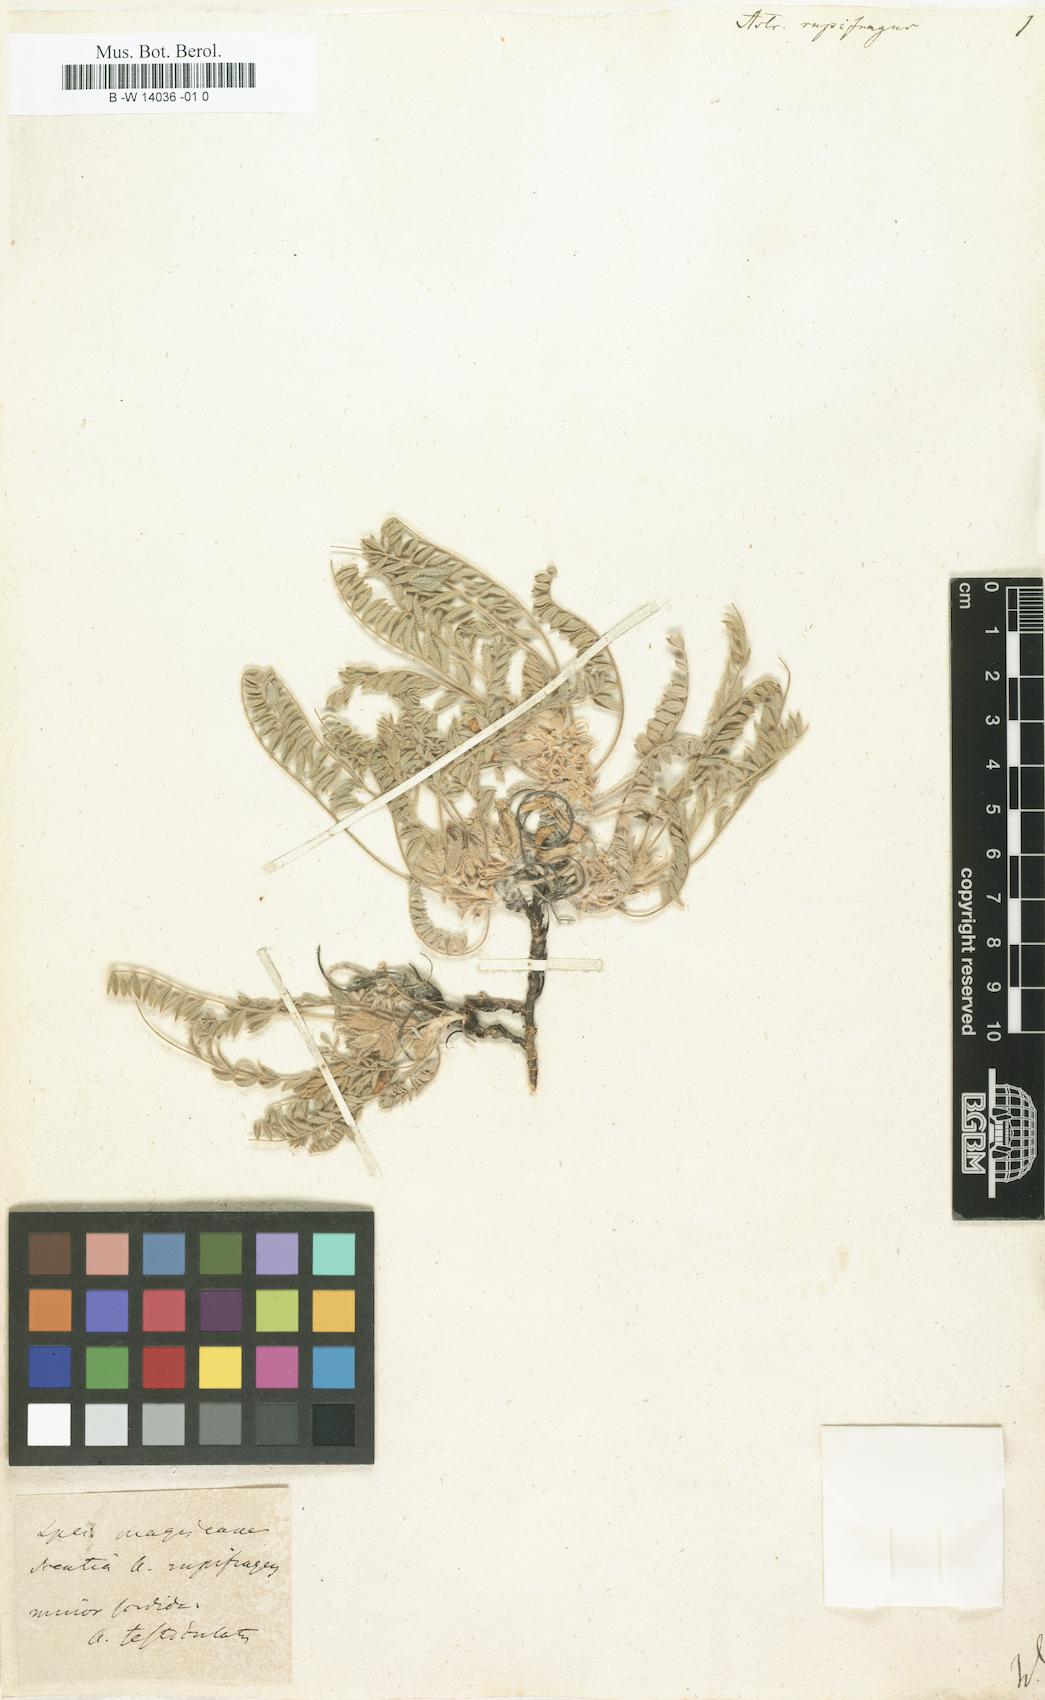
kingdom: Plantae
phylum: Tracheophyta
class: Magnoliopsida
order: Fabales
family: Fabaceae
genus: Astragalus
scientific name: Astragalus rupifragus
